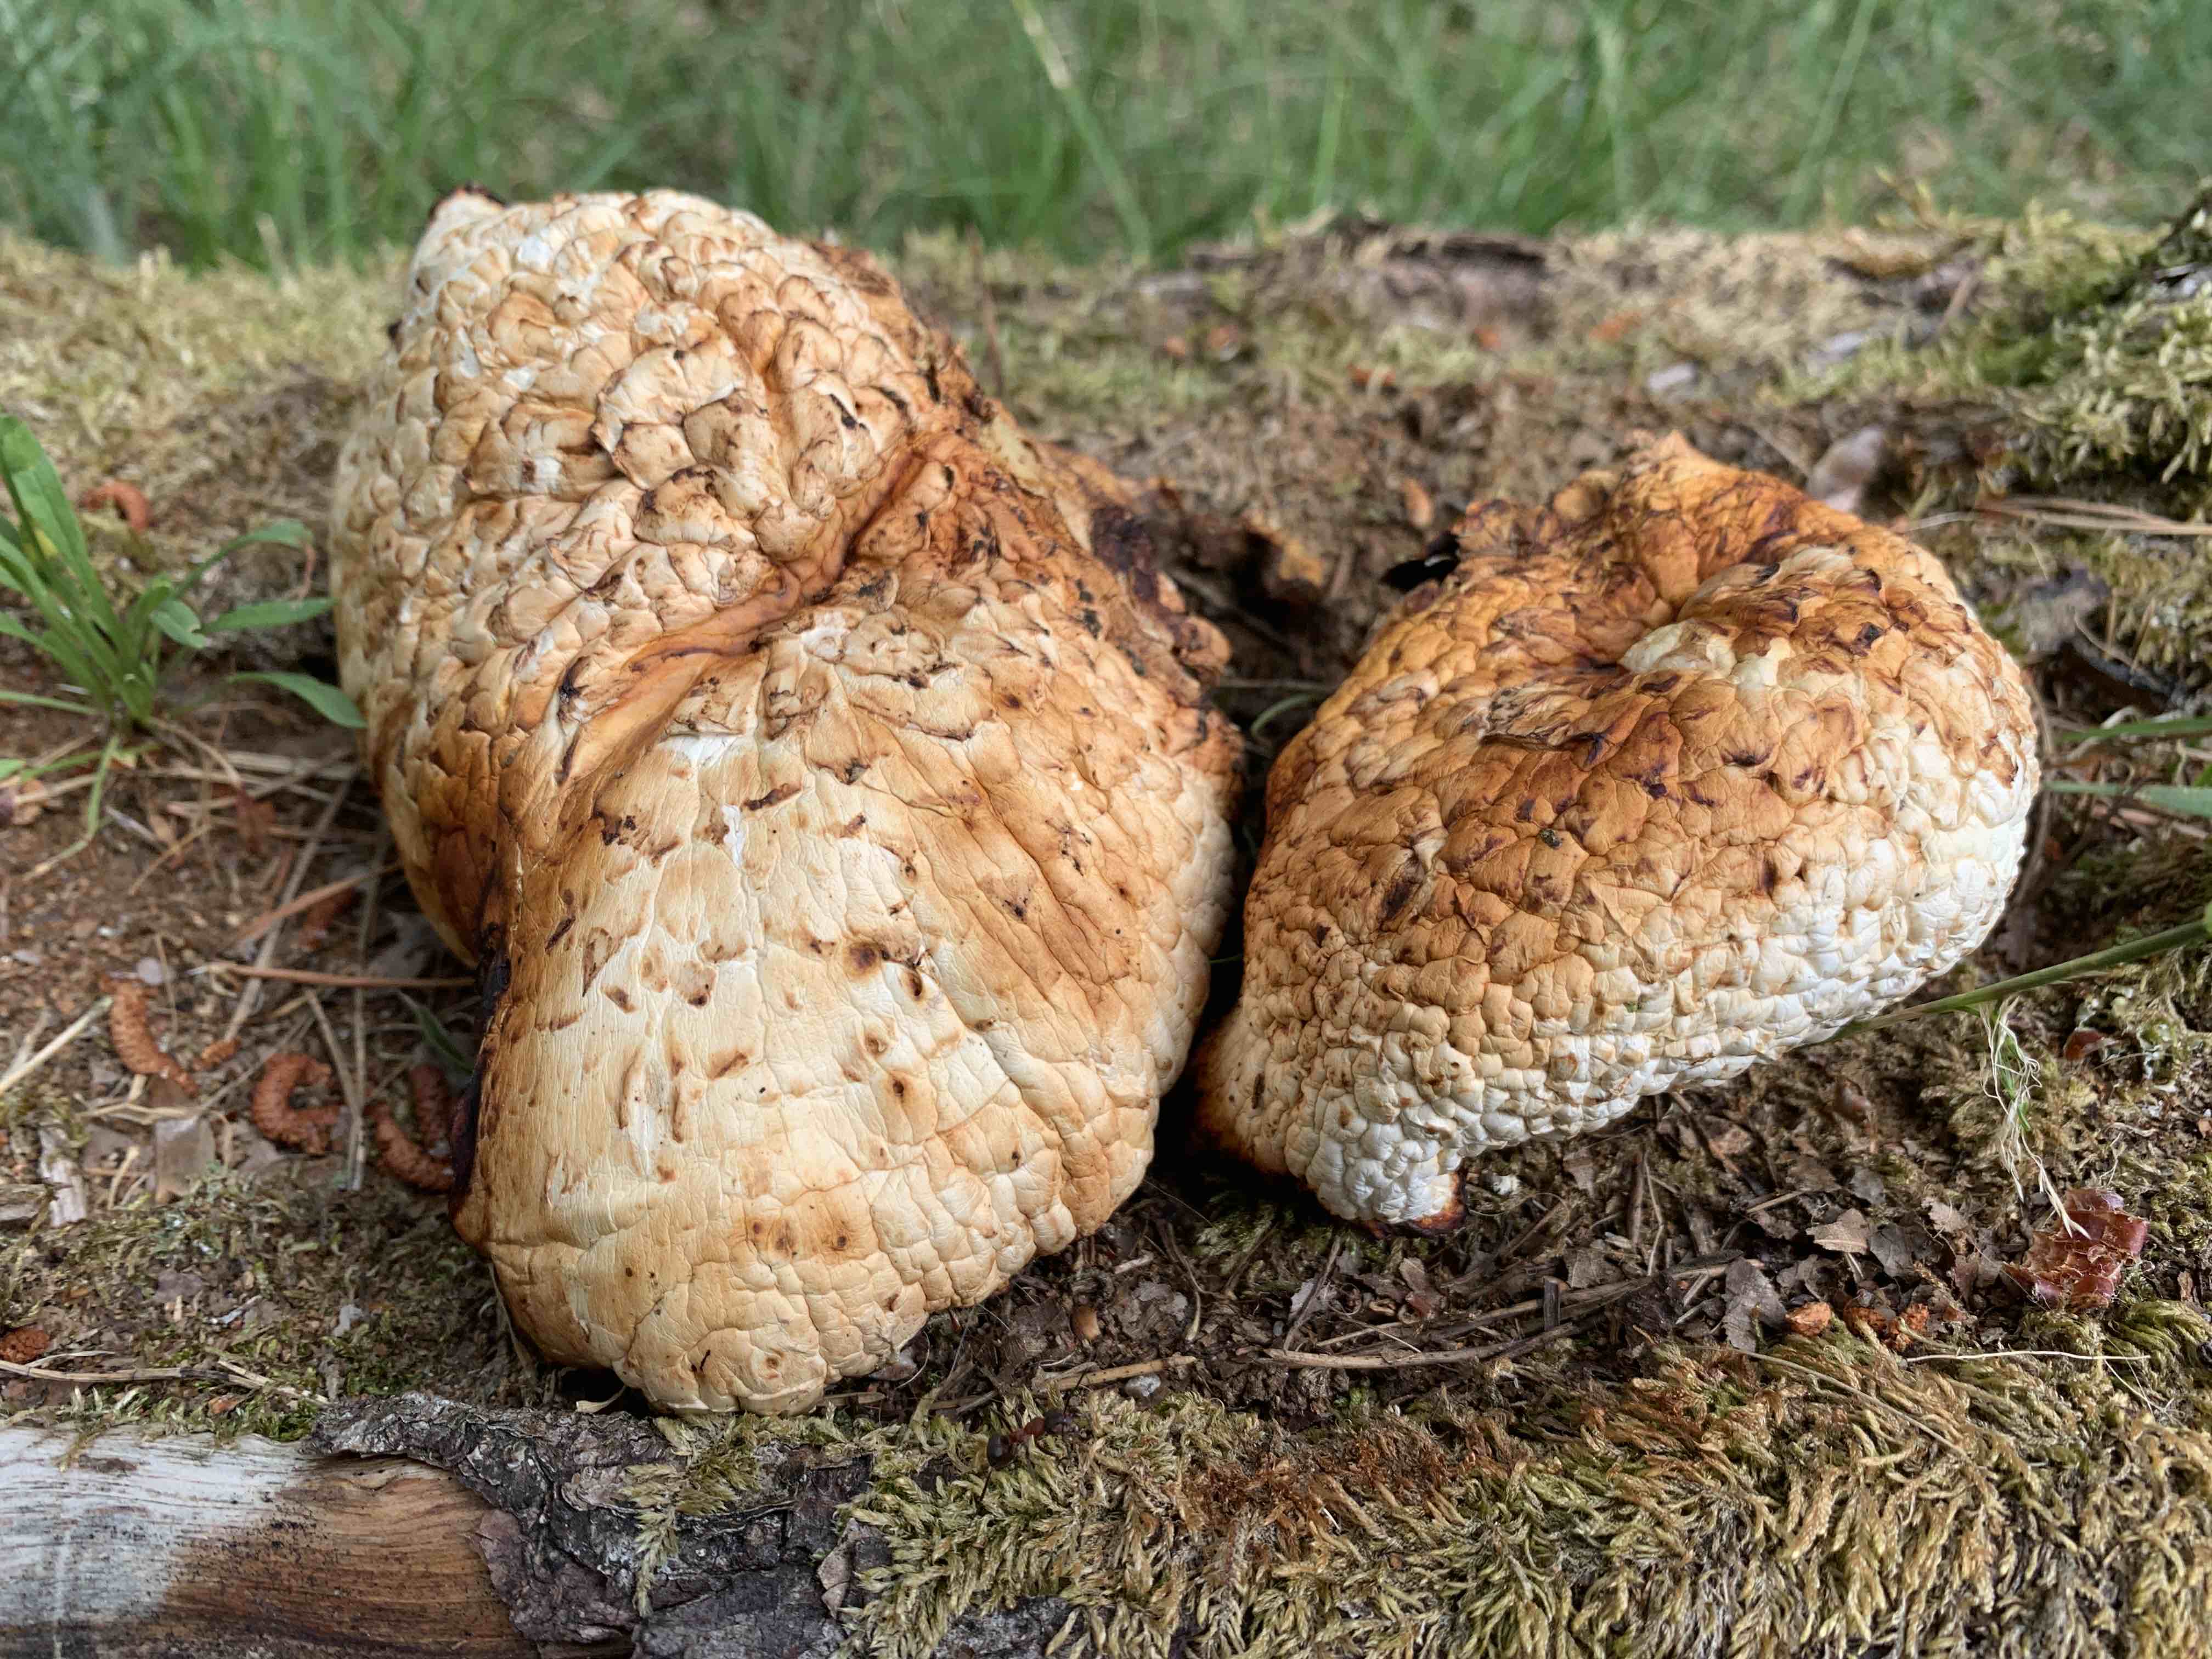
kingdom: Fungi
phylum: Basidiomycota
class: Agaricomycetes
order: Gloeophyllales
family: Gloeophyllaceae
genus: Neolentinus
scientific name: Neolentinus lepideus
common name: skællet sejhat
